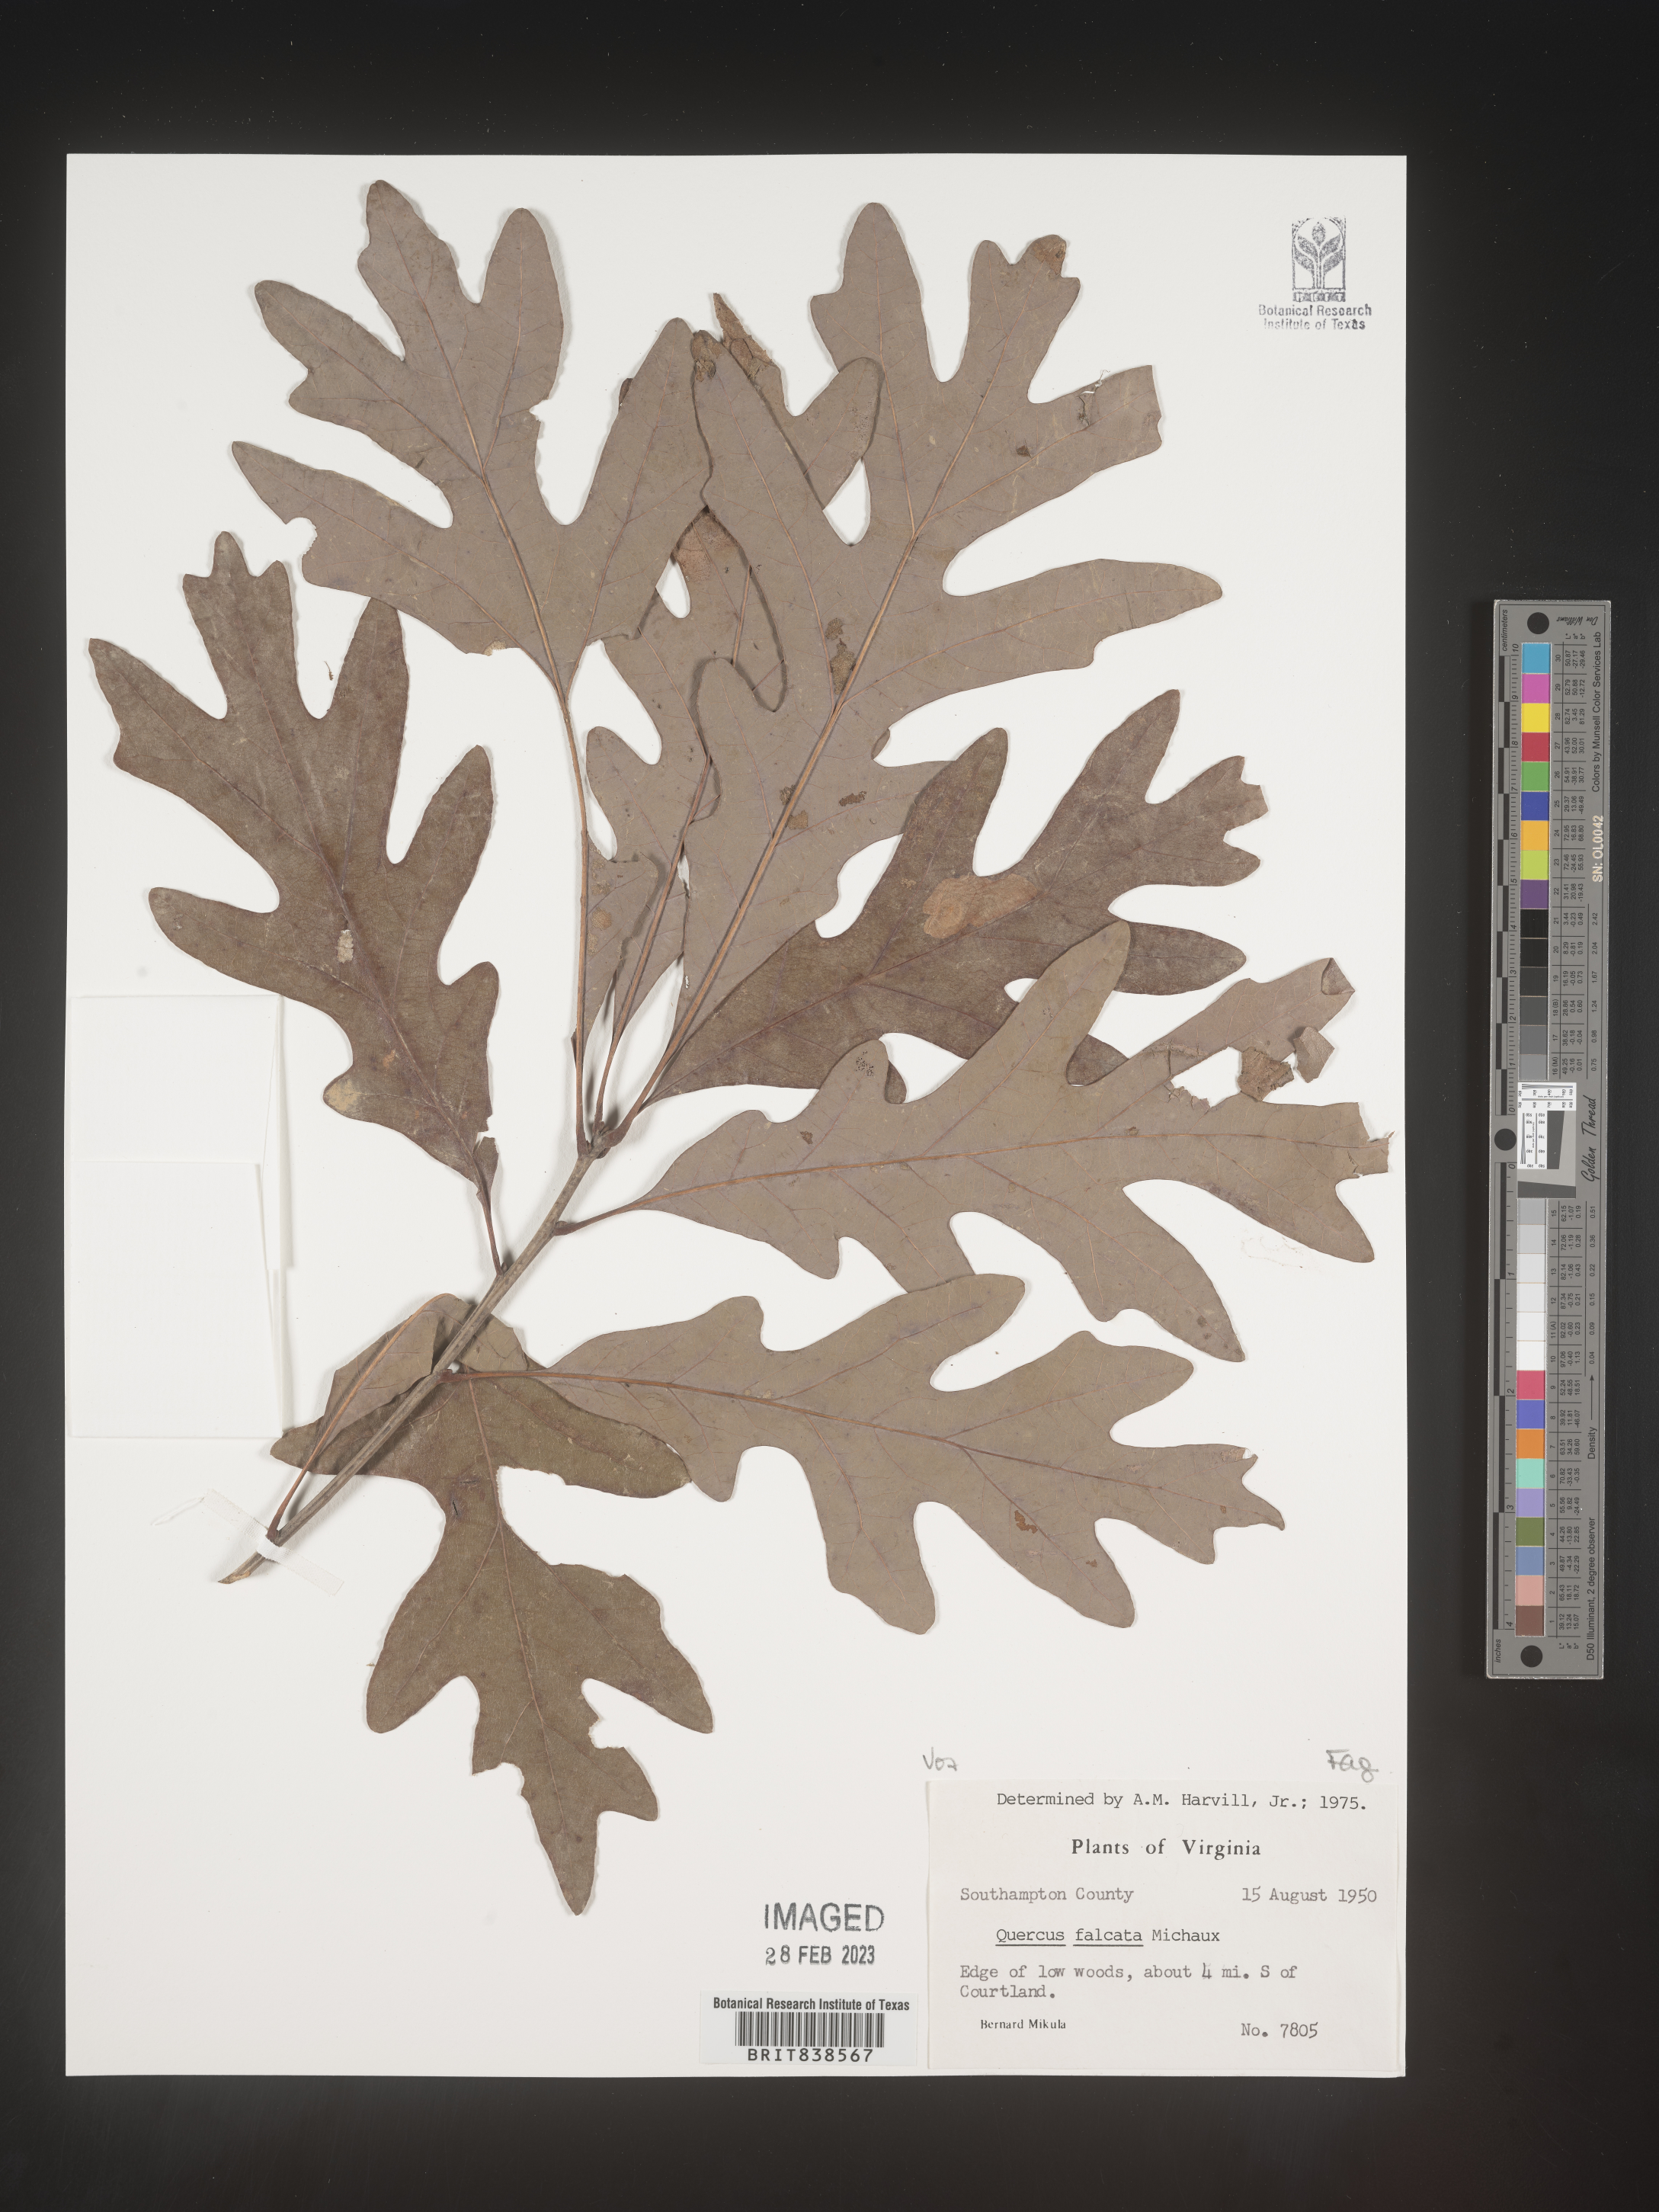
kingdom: Plantae
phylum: Tracheophyta
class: Magnoliopsida
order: Fagales
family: Fagaceae
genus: Quercus
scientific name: Quercus falcata
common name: Southern red oak
